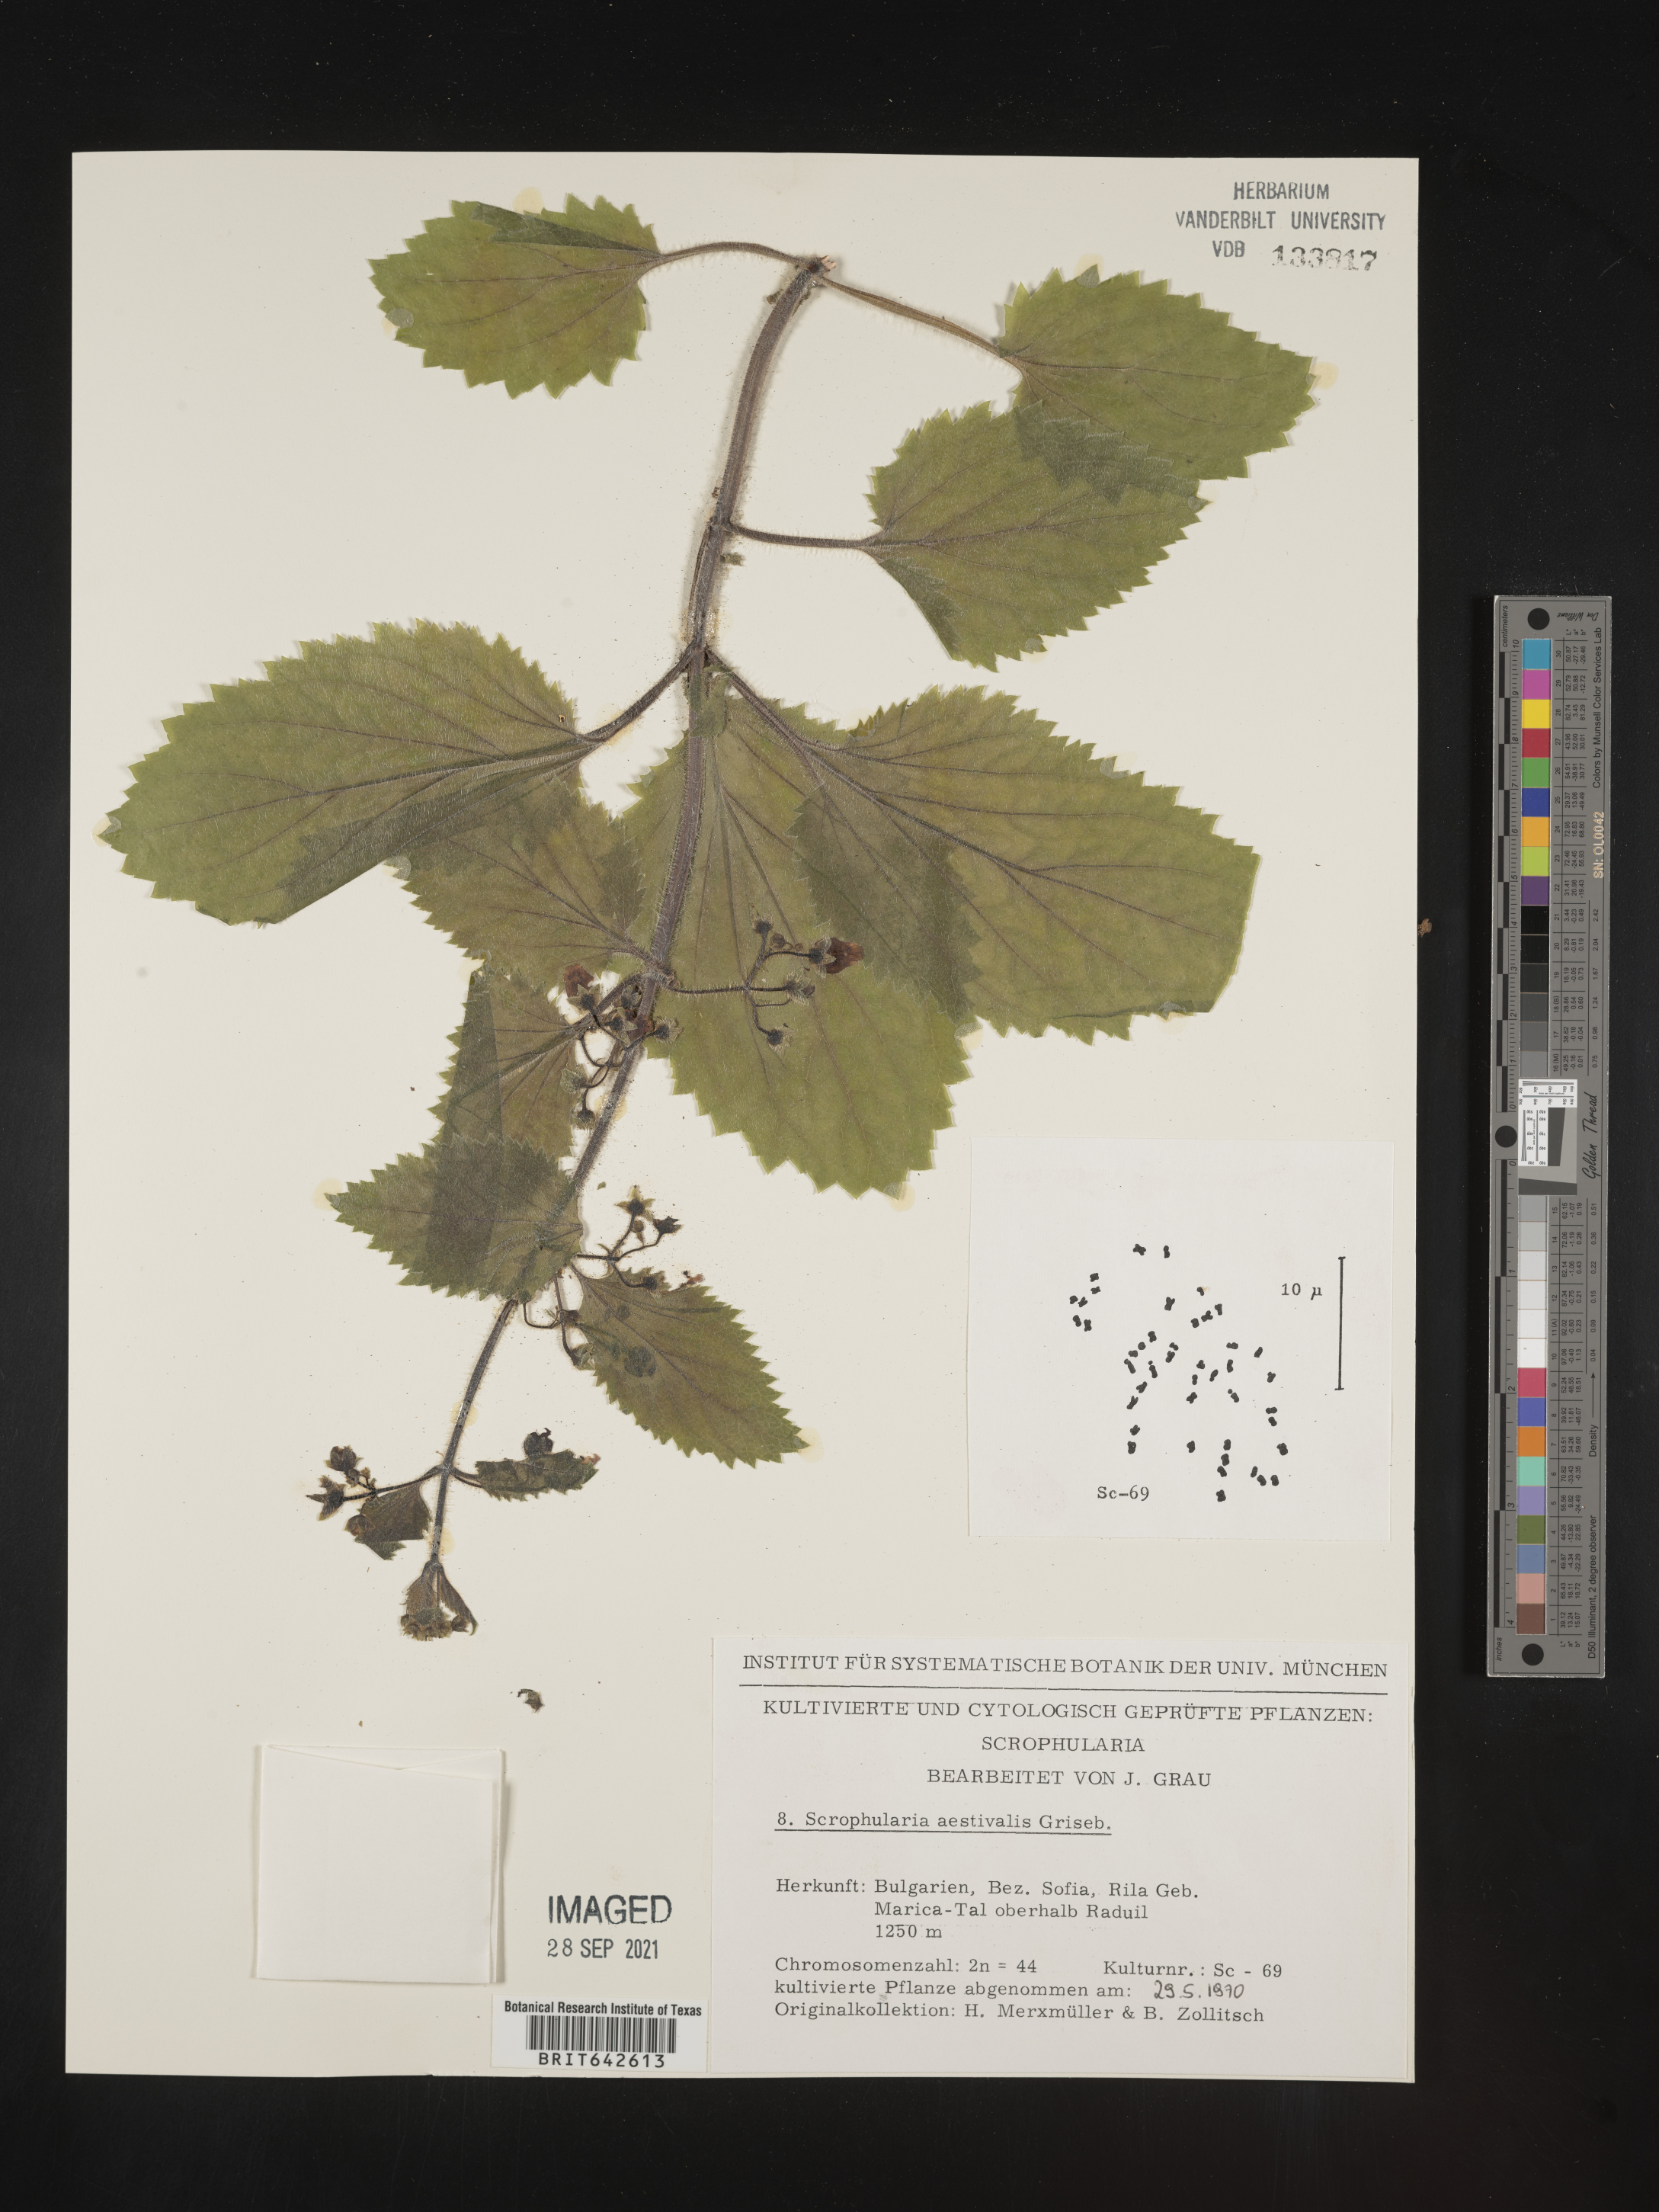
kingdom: Plantae
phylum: Tracheophyta
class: Magnoliopsida
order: Lamiales
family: Scrophulariaceae
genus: Scrophularia
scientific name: Scrophularia
